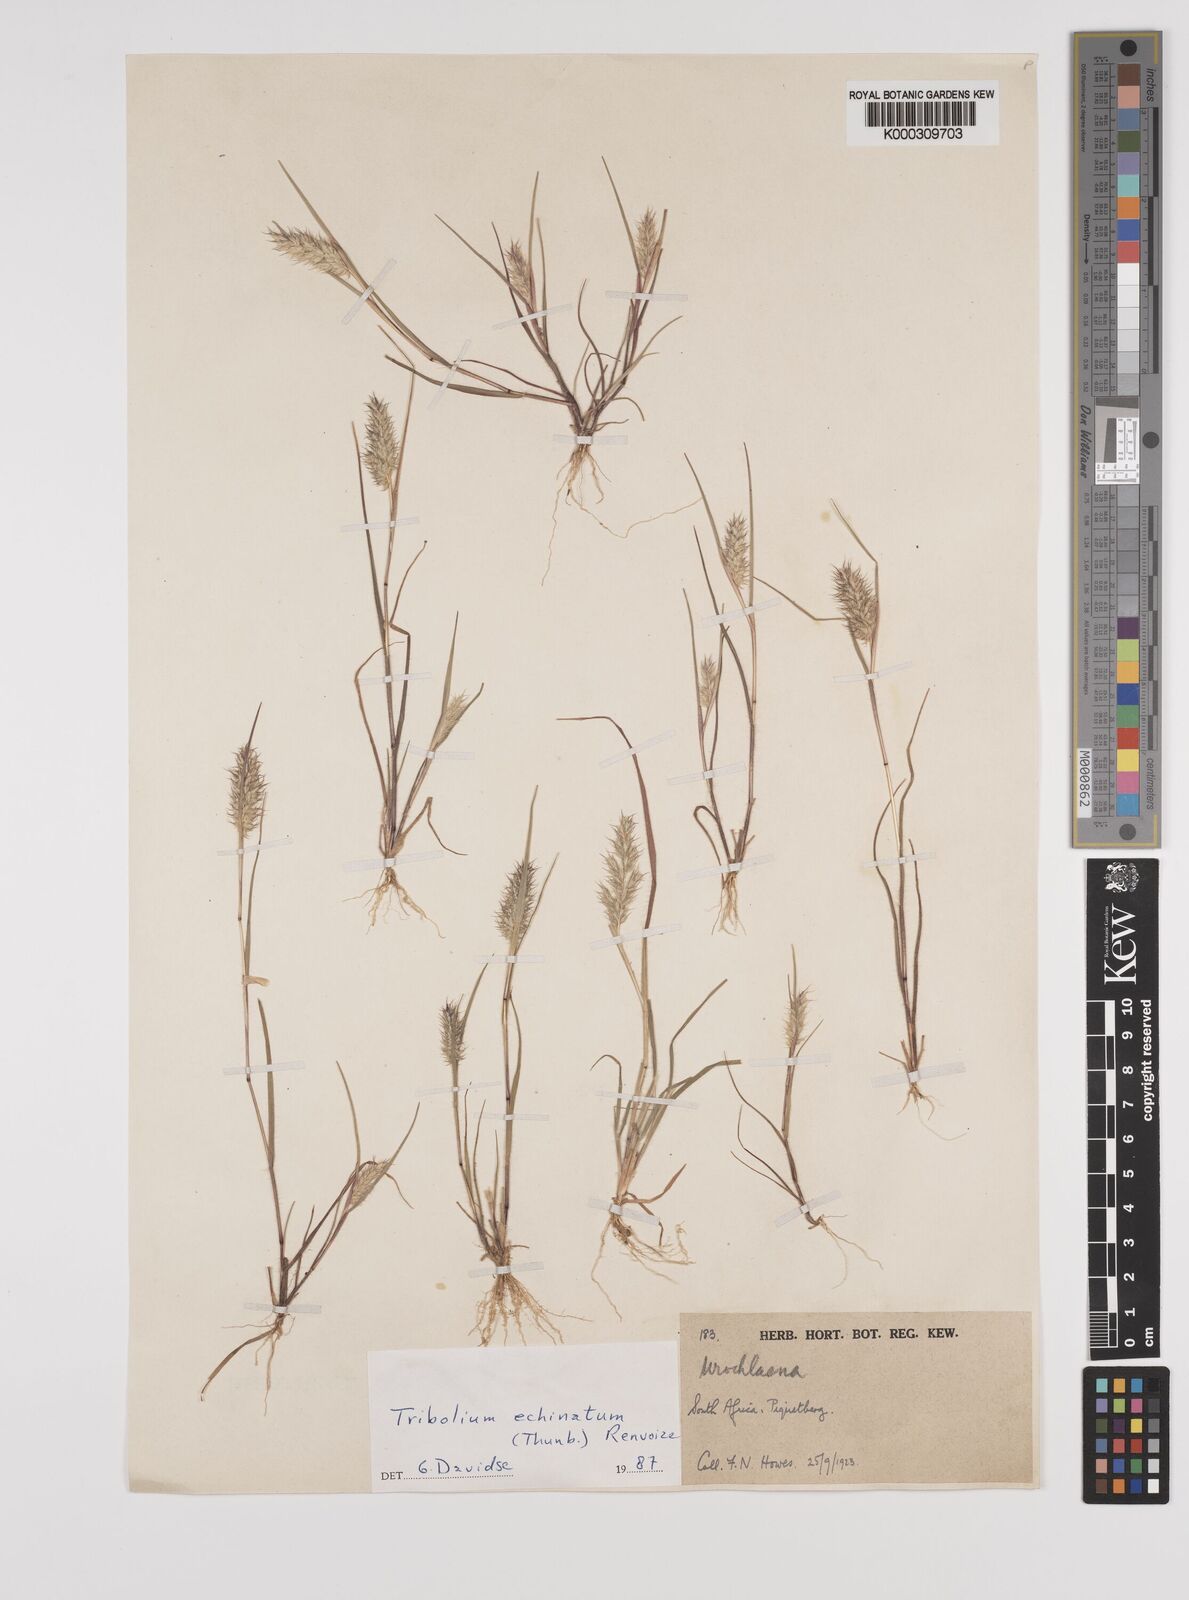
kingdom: Plantae
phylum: Tracheophyta
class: Liliopsida
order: Poales
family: Poaceae
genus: Tribolium
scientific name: Tribolium echinatum
